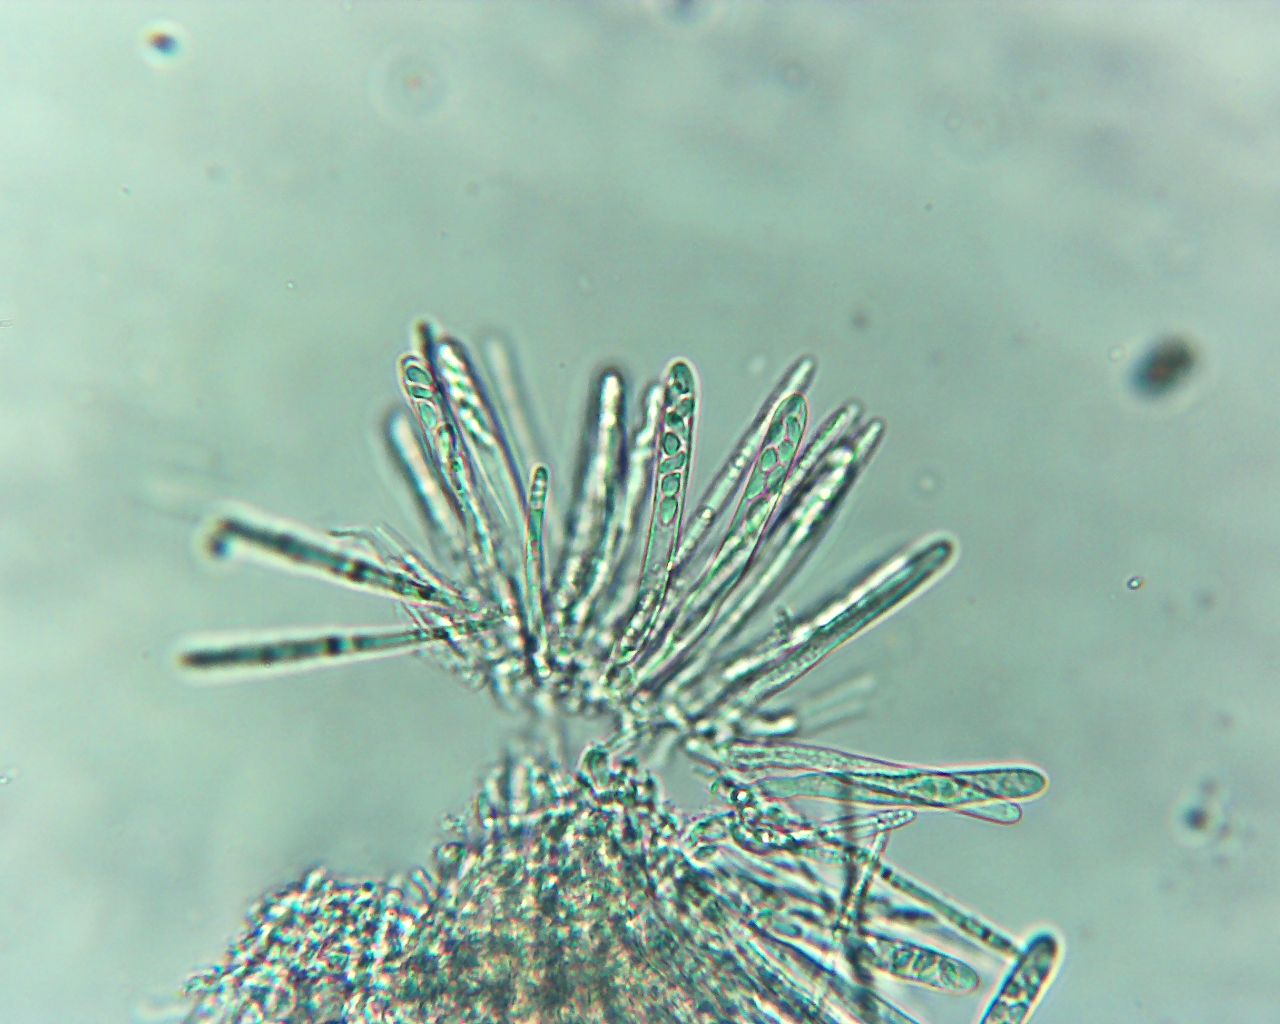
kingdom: Fungi
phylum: Ascomycota
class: Leotiomycetes
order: Helotiales
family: Lachnaceae
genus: Neodasyscypha
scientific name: Neodasyscypha cerina
